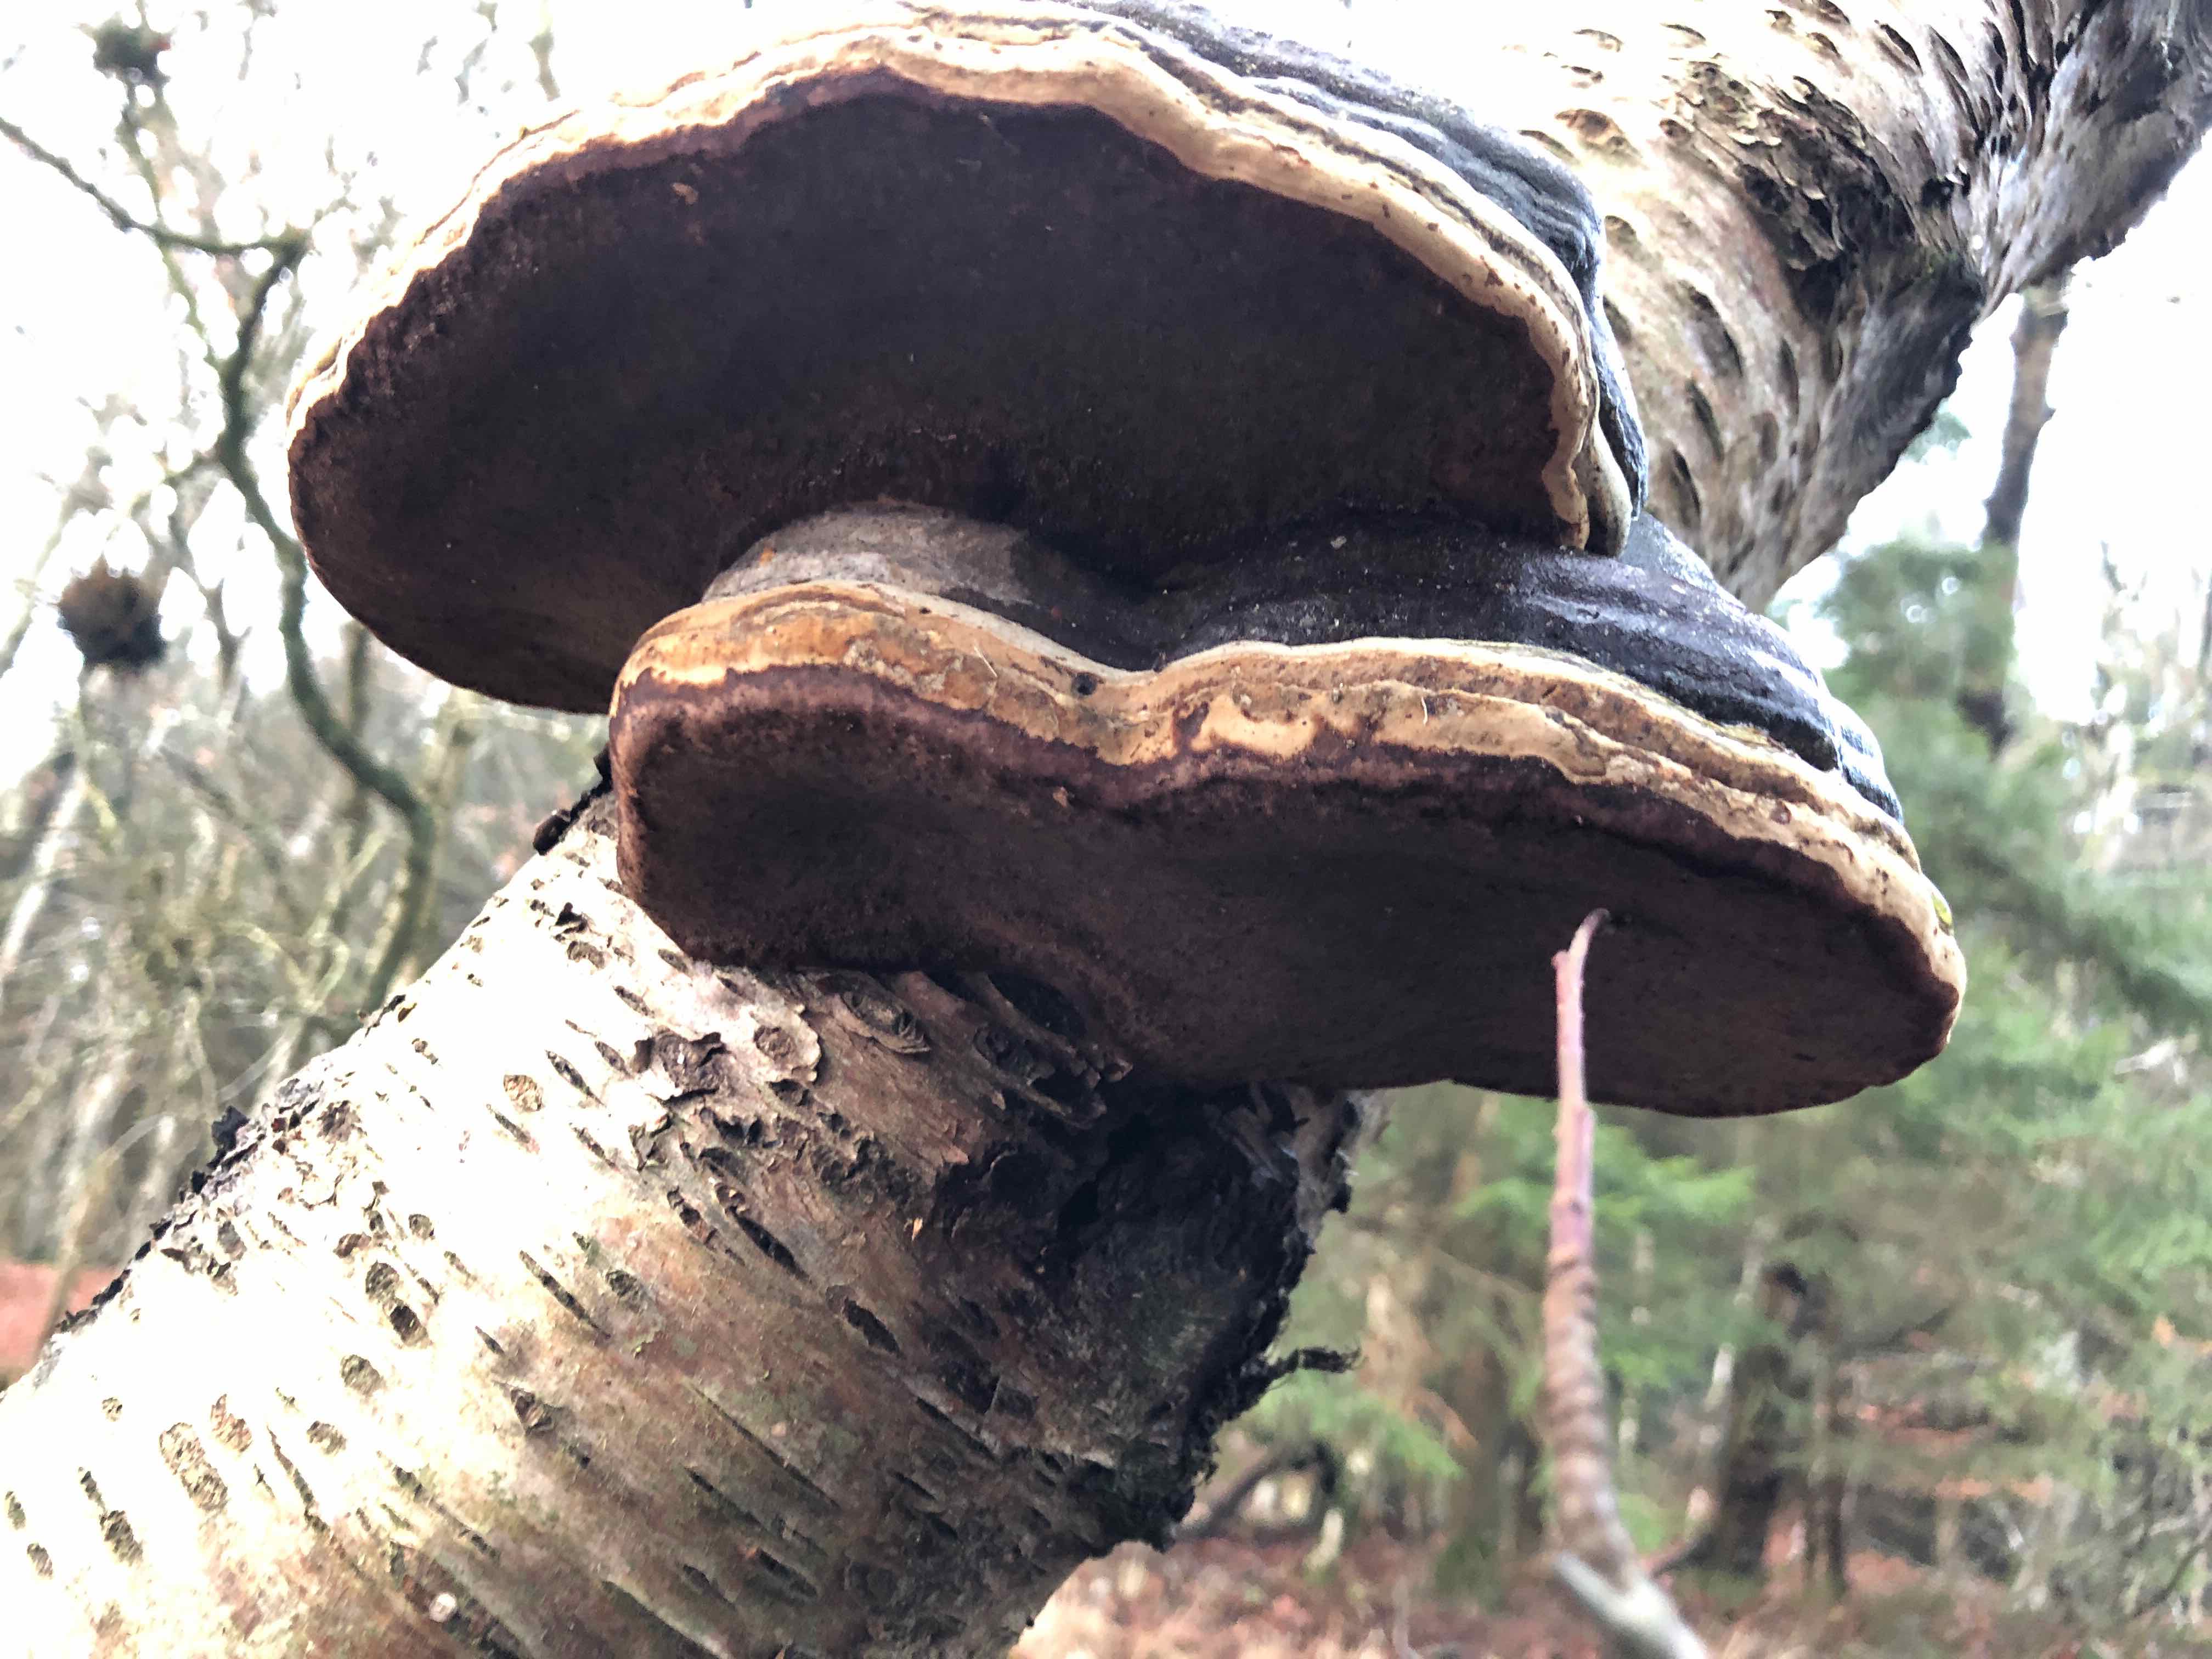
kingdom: Fungi
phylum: Basidiomycota
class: Agaricomycetes
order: Polyporales
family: Polyporaceae
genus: Fomes
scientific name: Fomes fomentarius
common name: tøndersvamp
